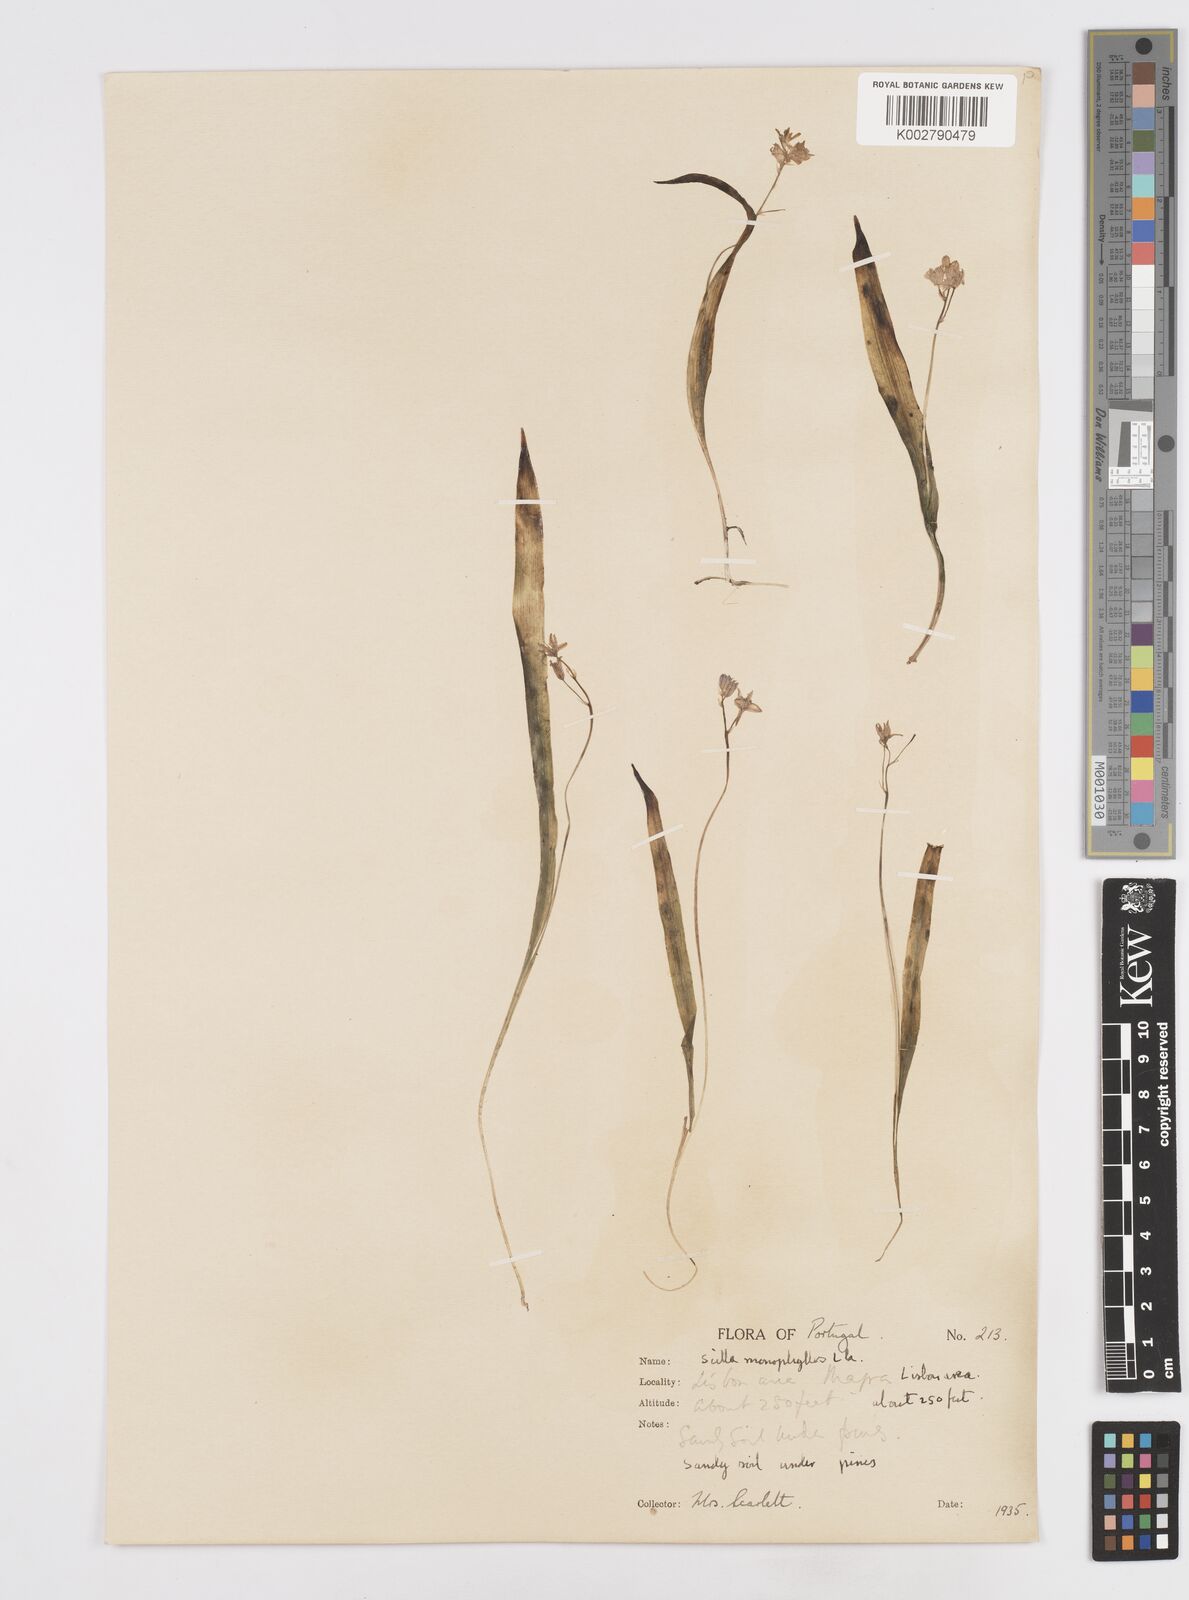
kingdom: Plantae
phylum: Tracheophyta
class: Liliopsida
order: Asparagales
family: Asparagaceae
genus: Scilla
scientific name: Scilla monophyllos
